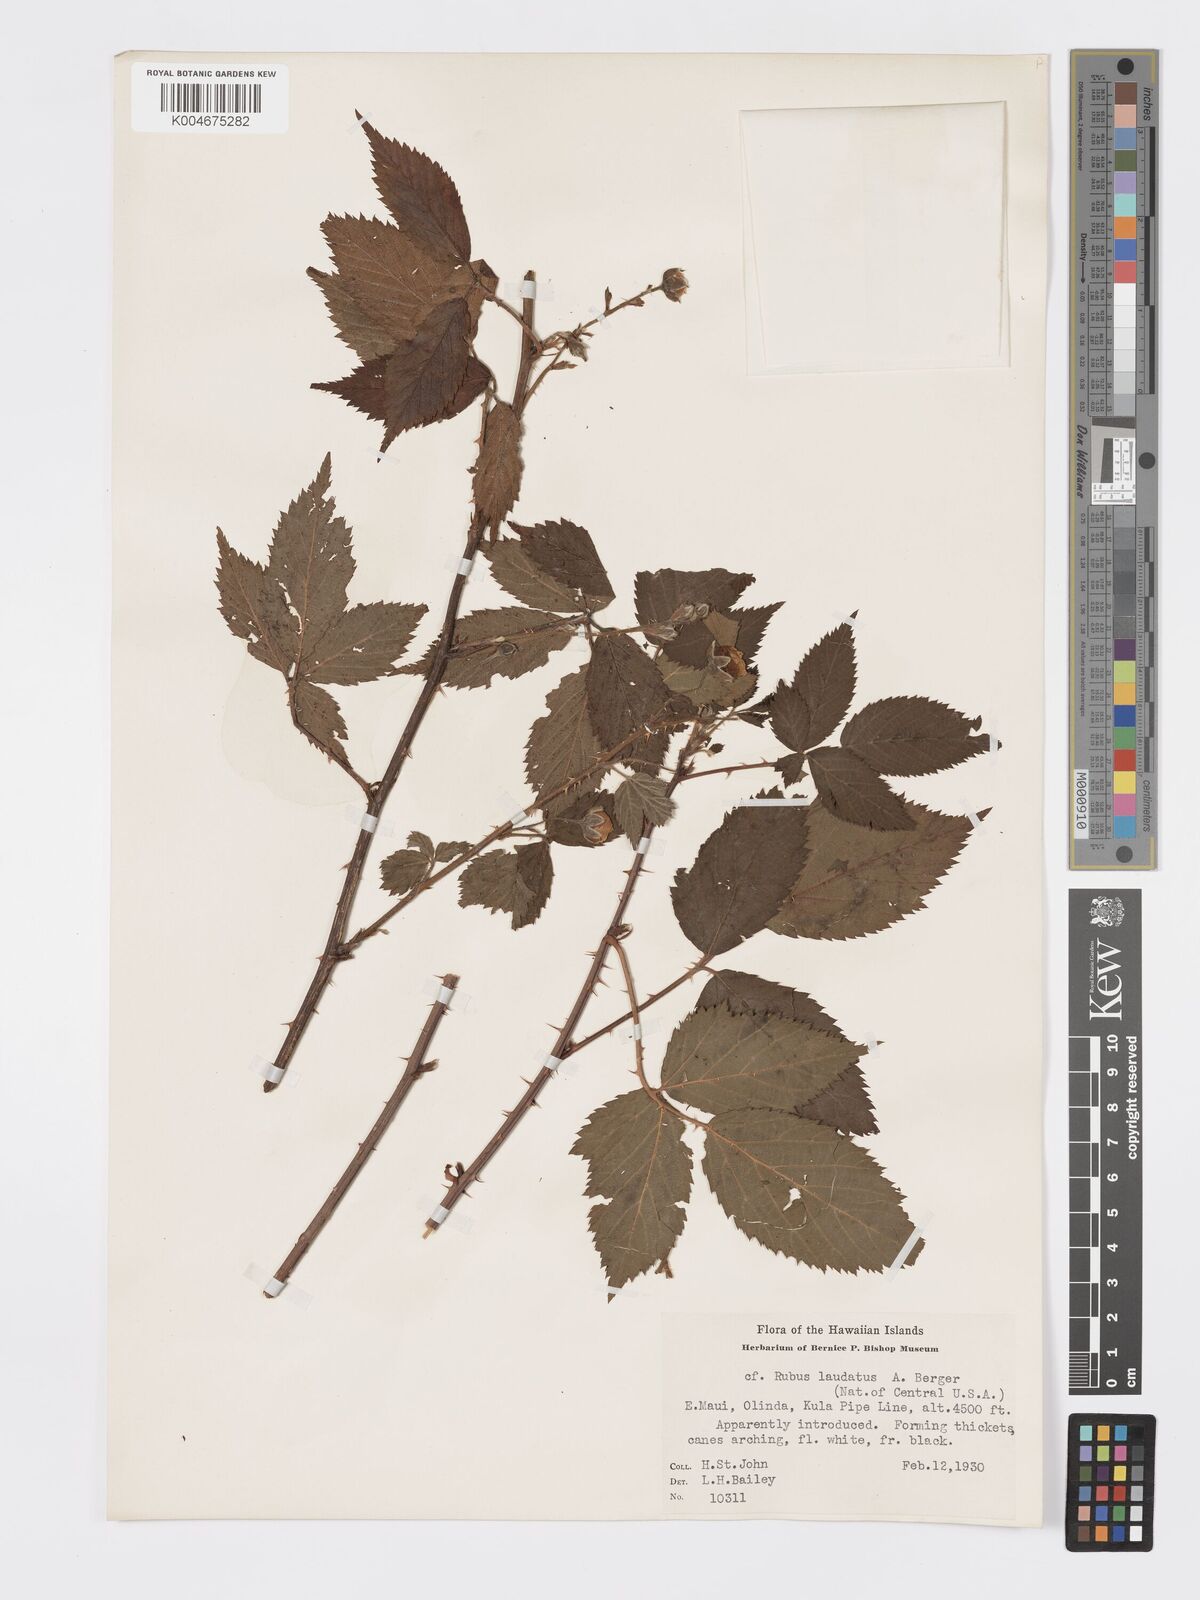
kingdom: Plantae
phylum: Tracheophyta
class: Magnoliopsida
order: Rosales
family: Rosaceae
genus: Rubus
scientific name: Rubus laudatus
